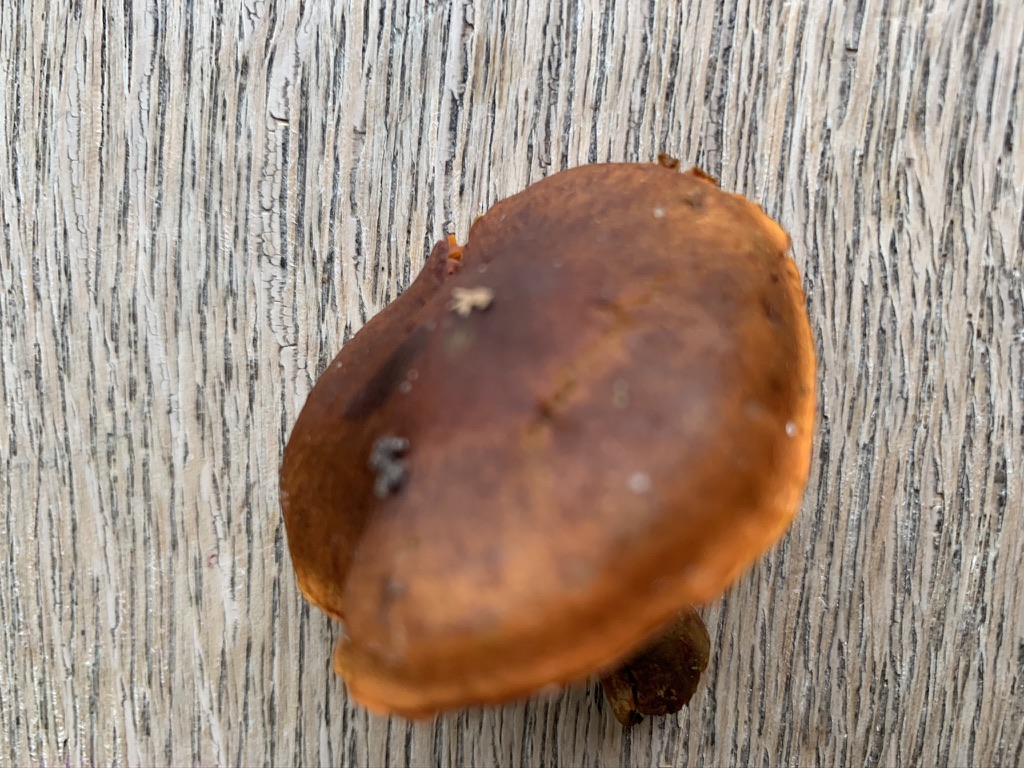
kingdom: Fungi
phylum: Basidiomycota
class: Agaricomycetes
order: Agaricales
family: Cortinariaceae
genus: Cortinarius
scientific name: Cortinarius
